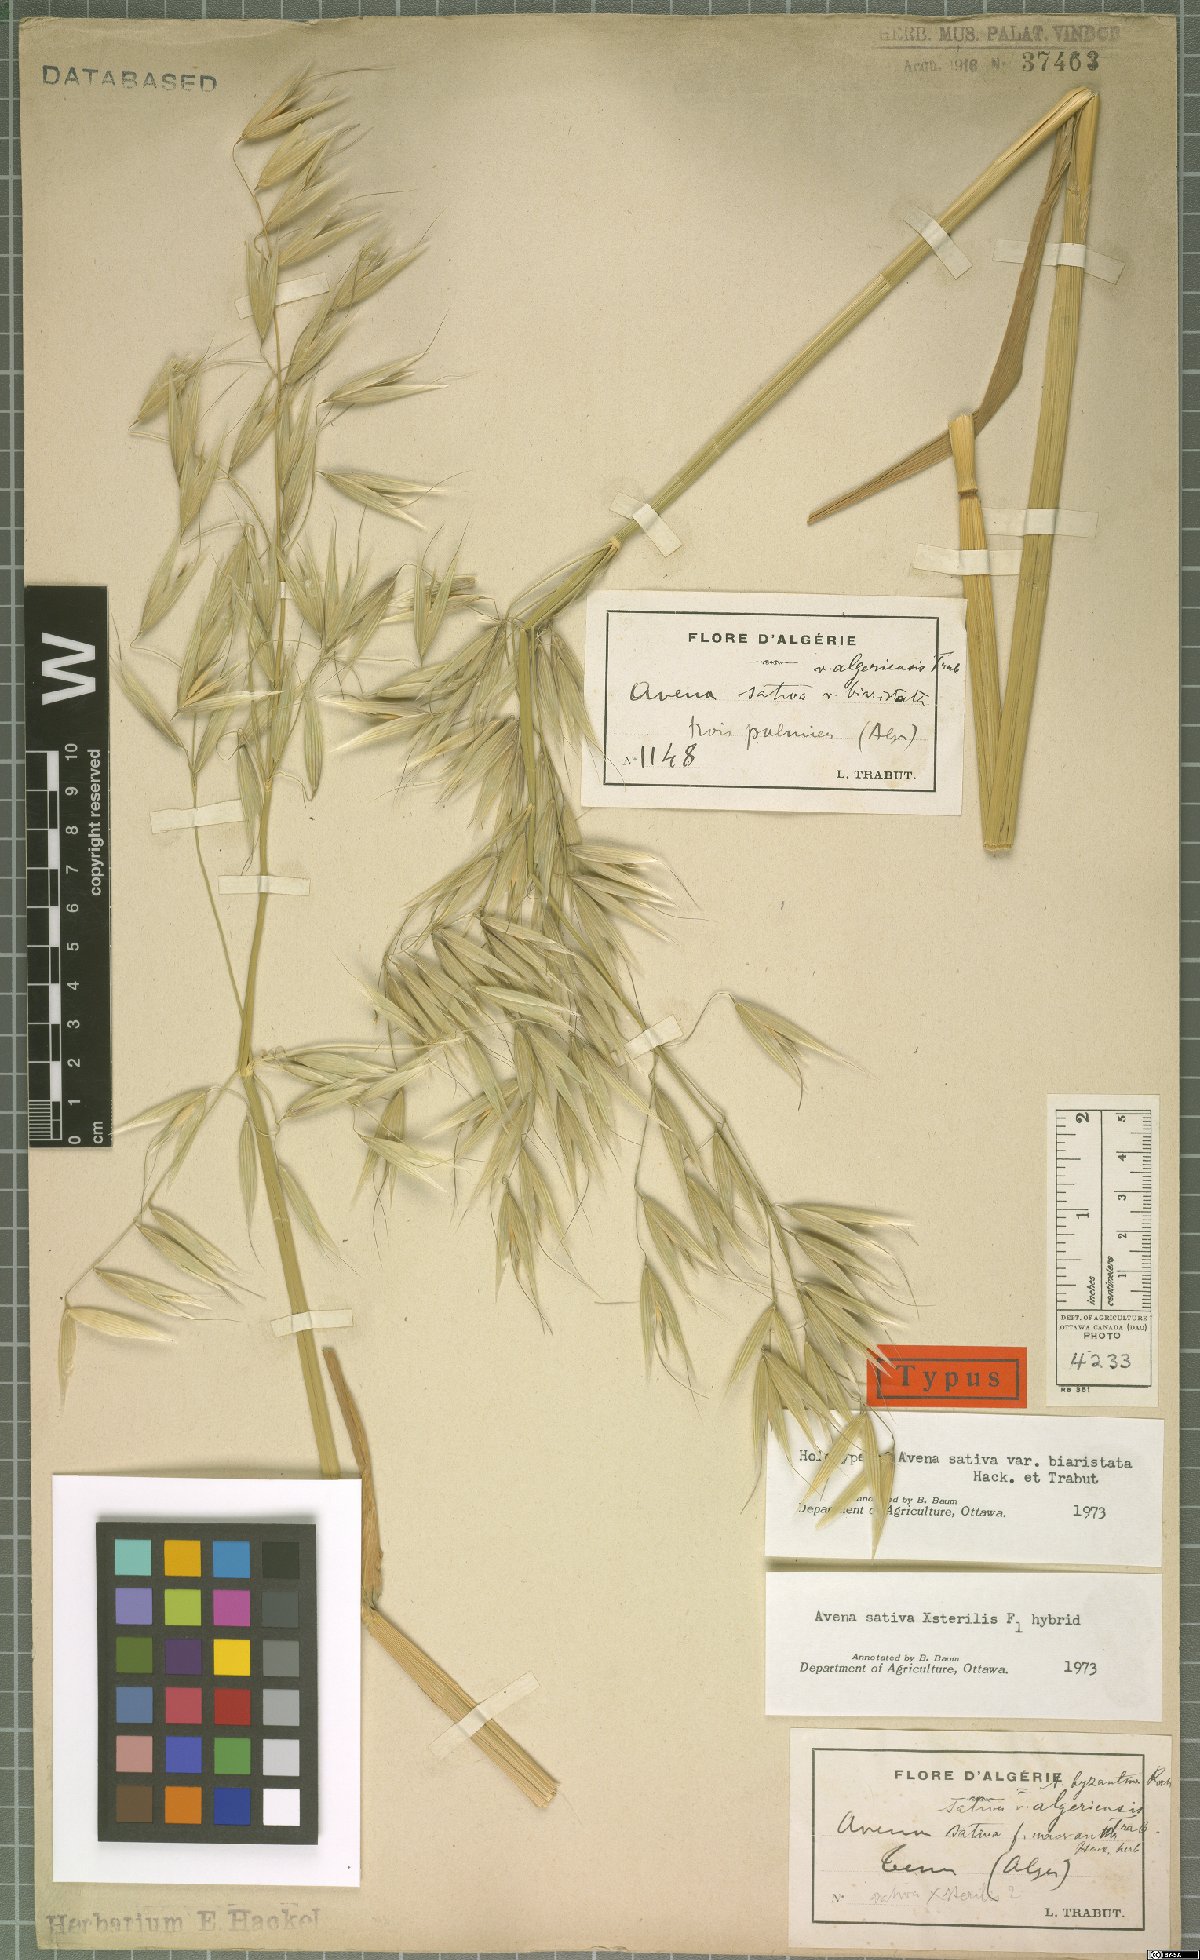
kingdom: Plantae
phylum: Tracheophyta
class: Liliopsida
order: Poales
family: Poaceae
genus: Avena
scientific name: Avena byzantina
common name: Algerian oat
